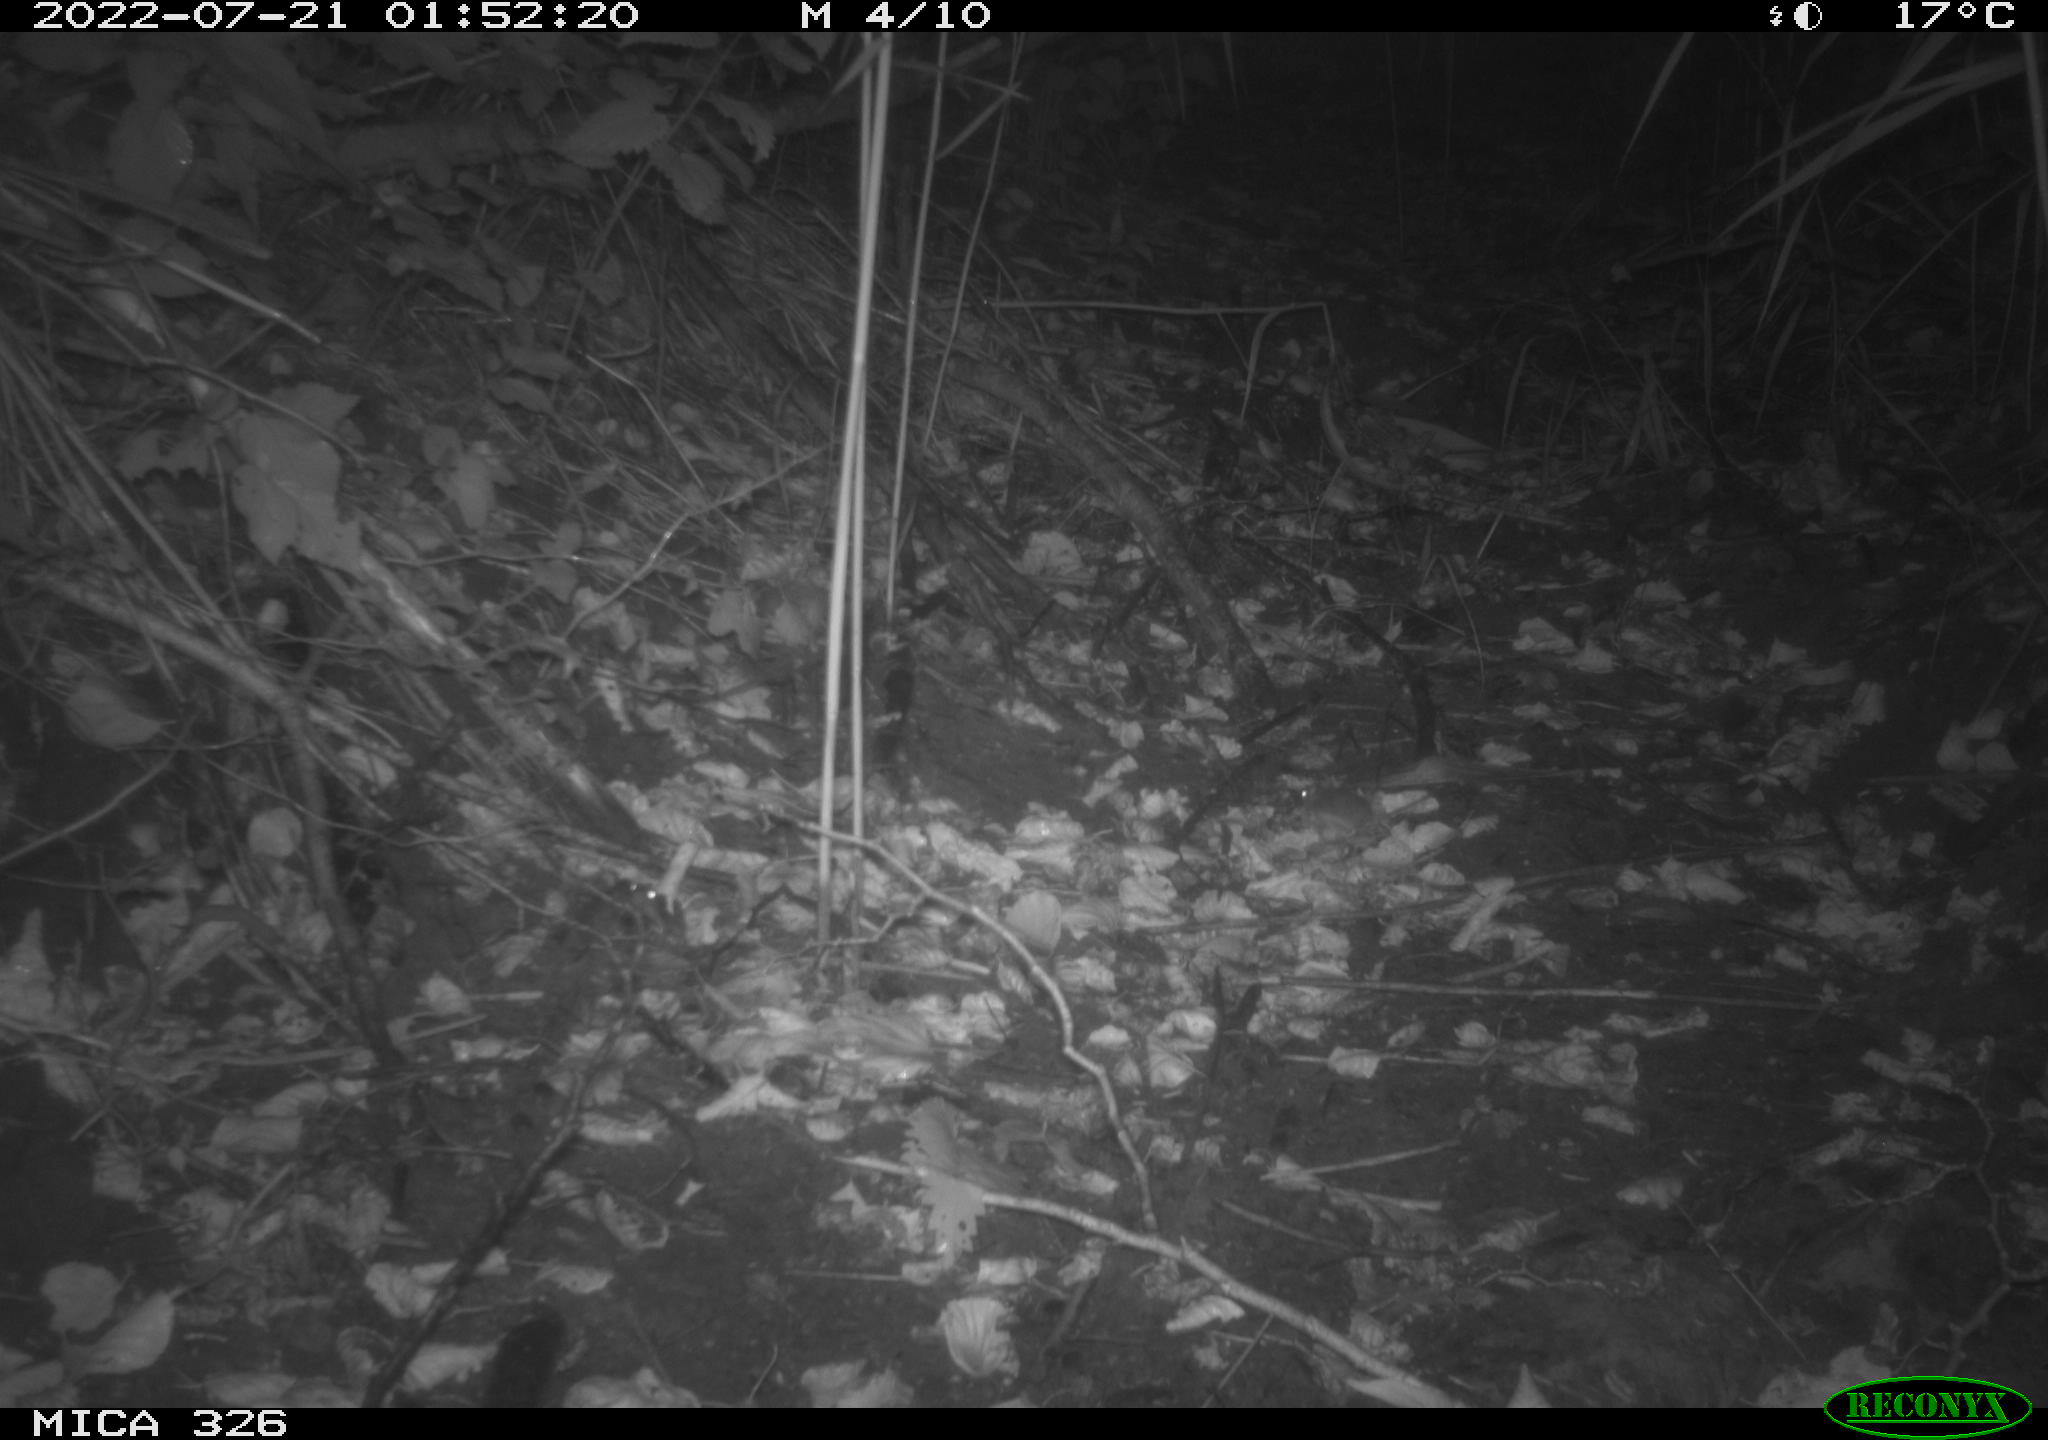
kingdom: Animalia
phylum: Chordata
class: Mammalia
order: Rodentia
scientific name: Rodentia
